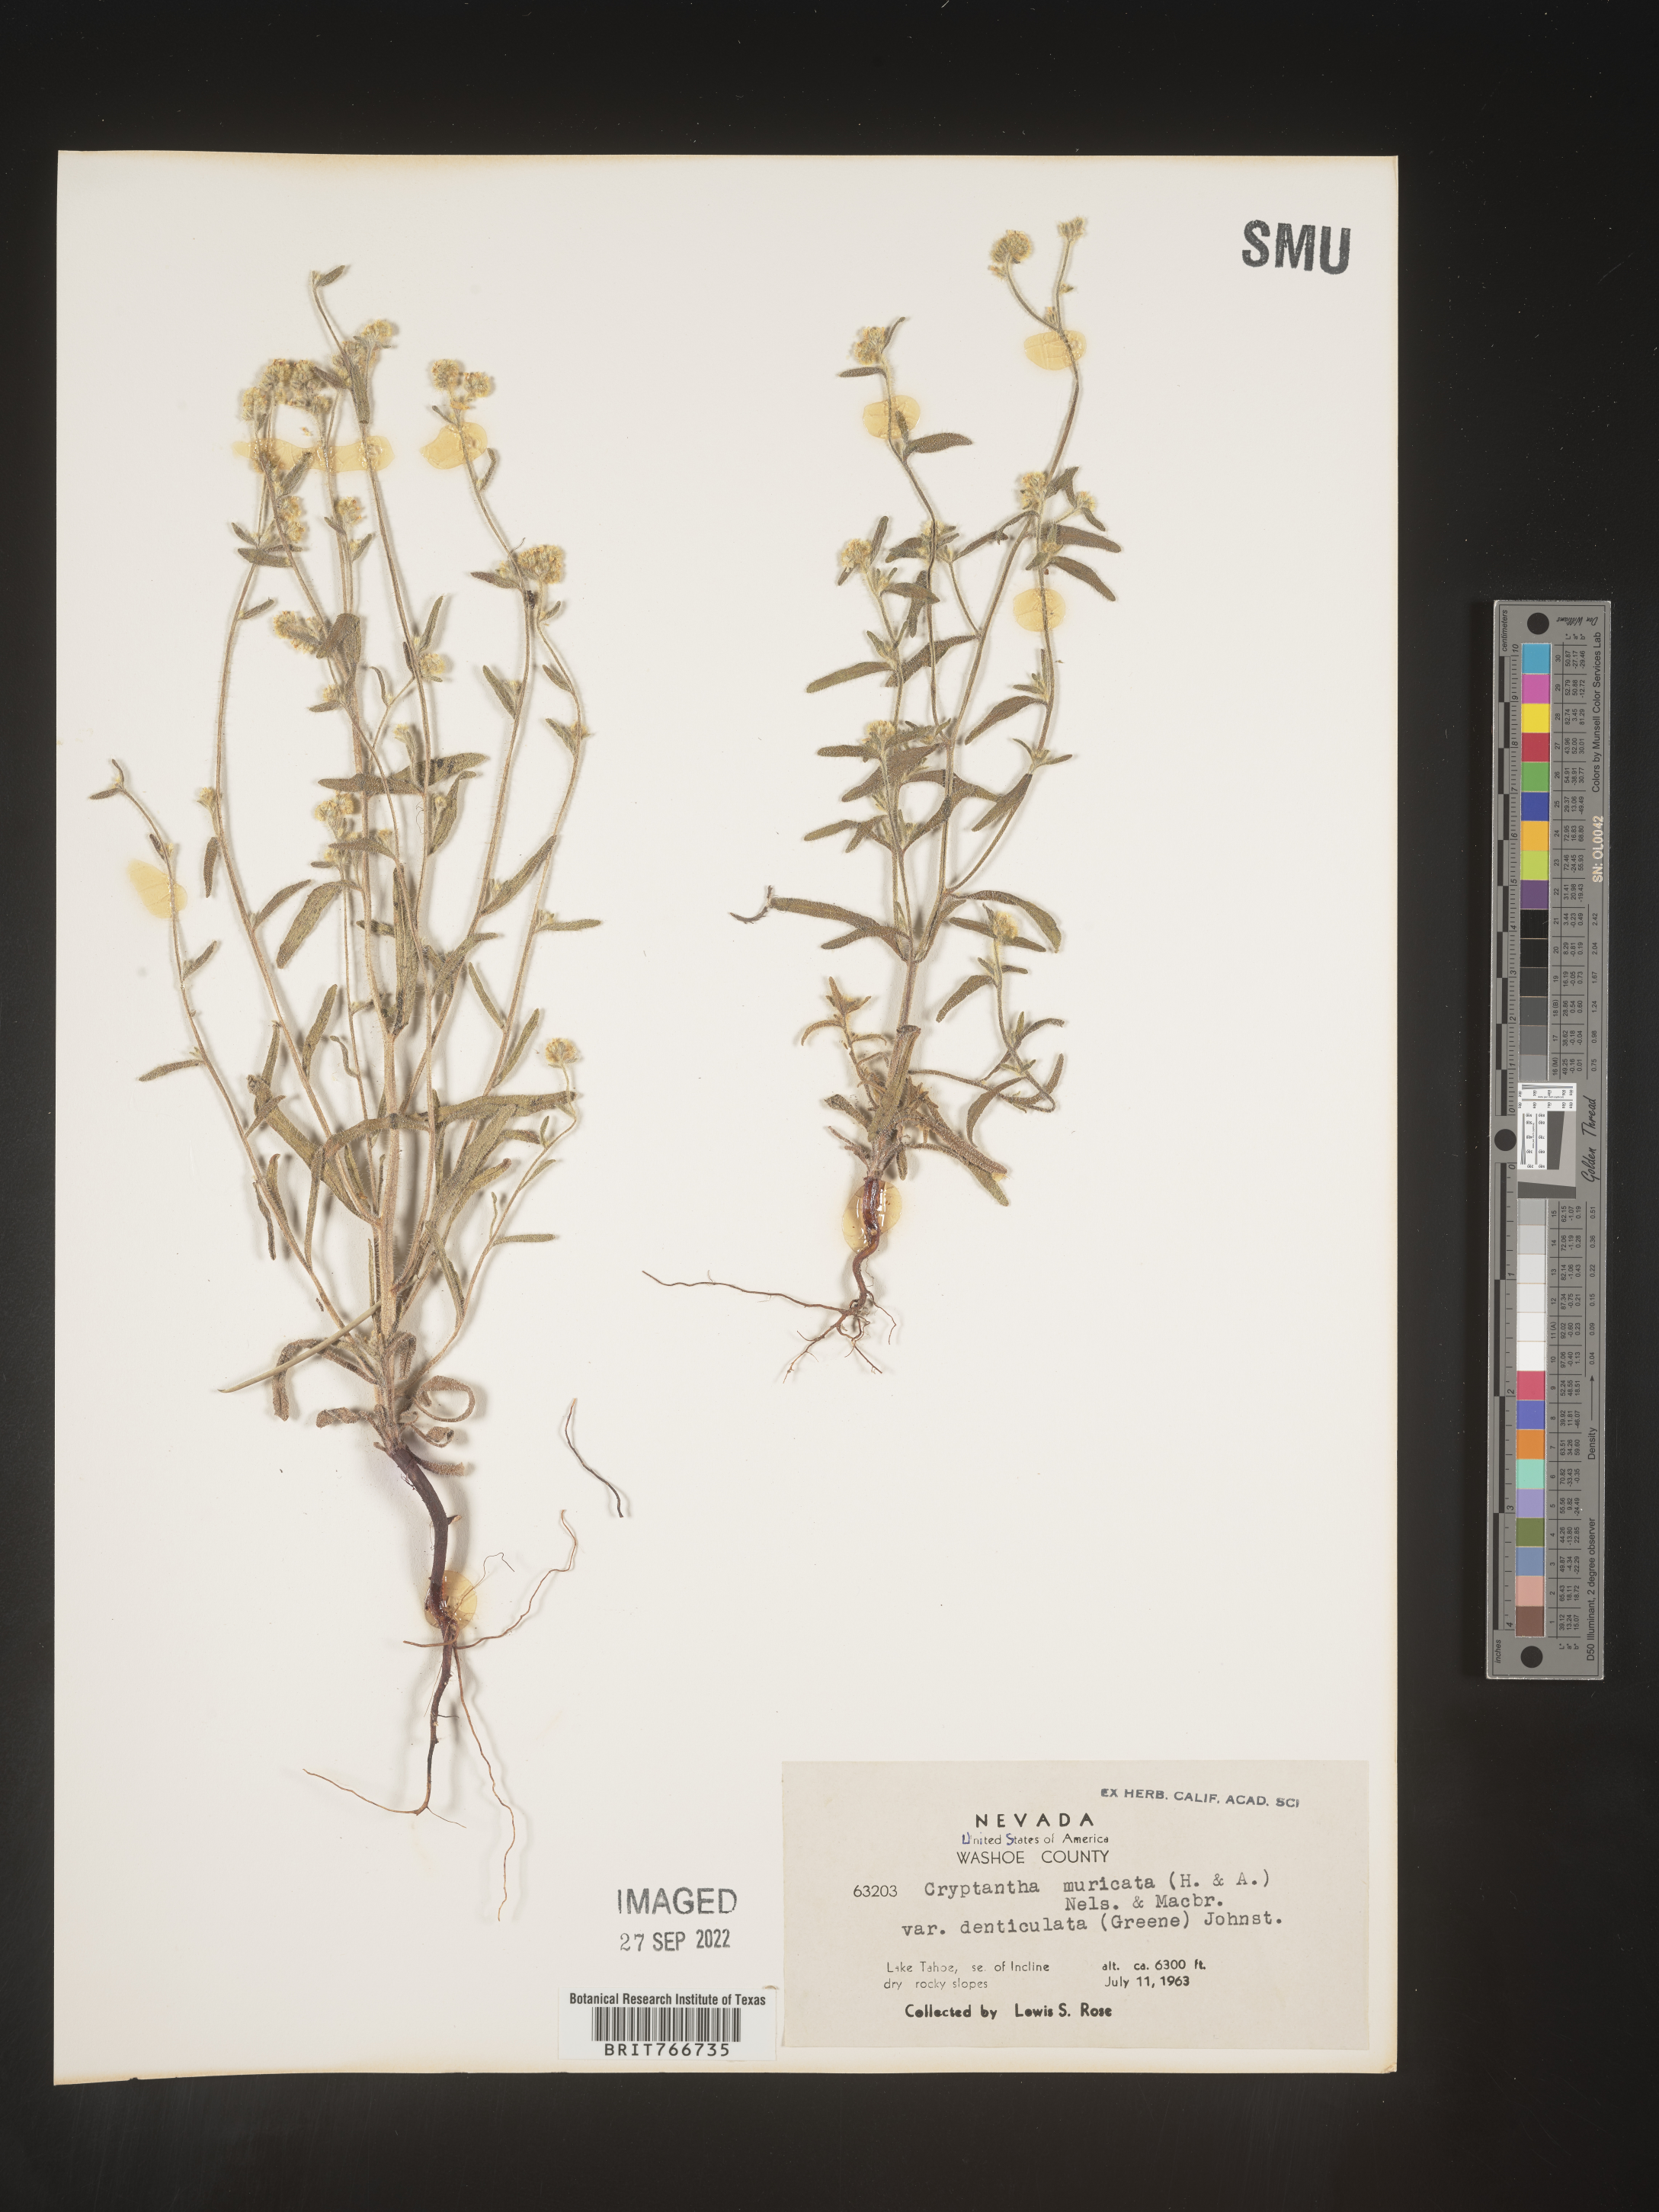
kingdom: Plantae
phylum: Tracheophyta
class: Magnoliopsida
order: Boraginales
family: Boraginaceae
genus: Cryptantha
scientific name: Cryptantha muricata
